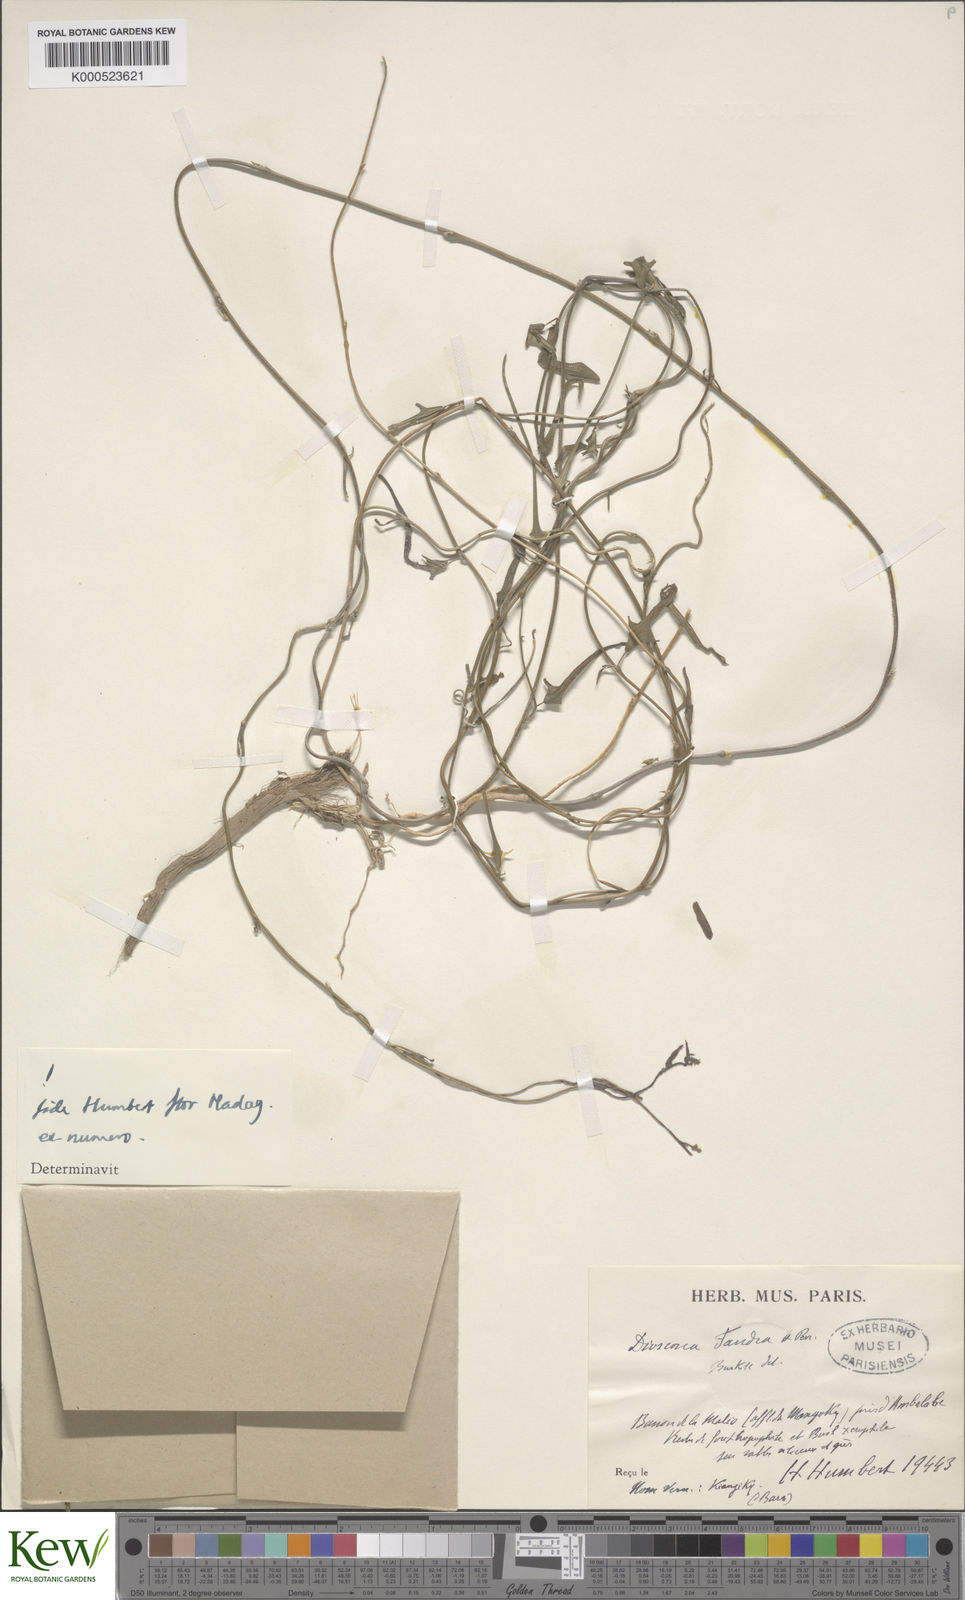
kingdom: Plantae
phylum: Tracheophyta
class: Liliopsida
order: Dioscoreales
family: Dioscoreaceae
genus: Dioscorea
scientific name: Dioscorea fandra
